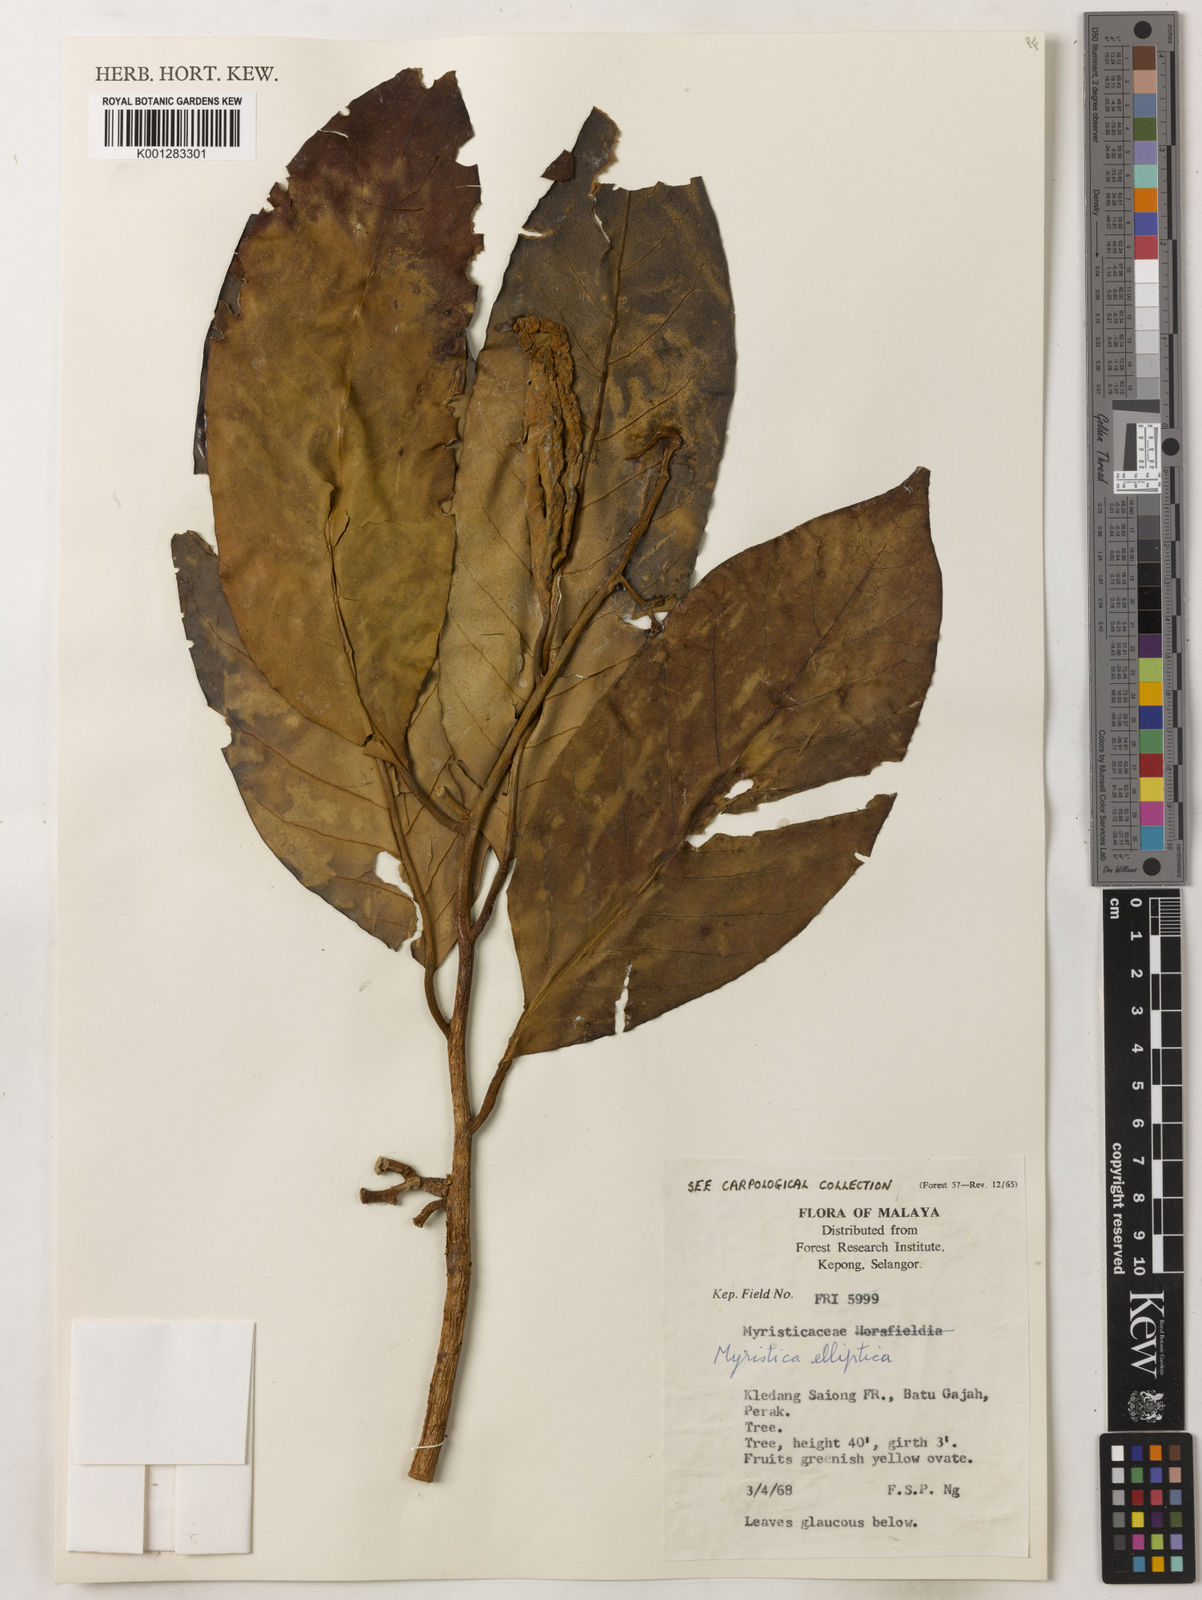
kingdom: Plantae
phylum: Tracheophyta
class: Magnoliopsida
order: Magnoliales
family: Myristicaceae
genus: Myristica
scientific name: Myristica elliptica
